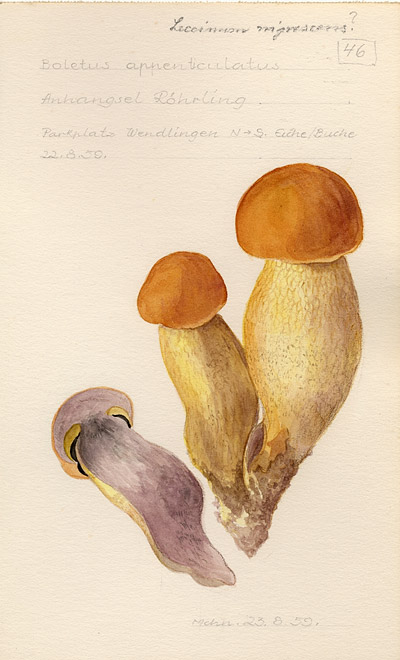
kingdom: Fungi
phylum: Basidiomycota
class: Agaricomycetes
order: Boletales
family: Boletaceae
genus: Butyriboletus
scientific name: Butyriboletus appendiculatus
